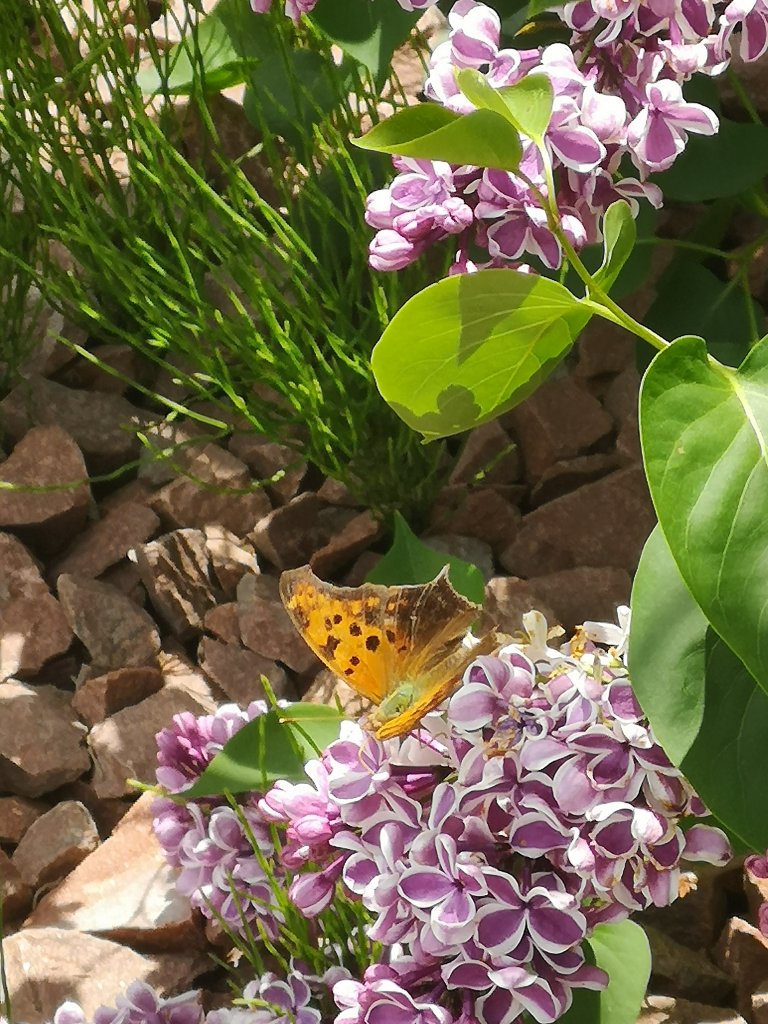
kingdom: Animalia
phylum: Arthropoda
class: Insecta
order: Lepidoptera
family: Nymphalidae
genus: Polygonia
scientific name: Polygonia interrogationis
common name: Question Mark
